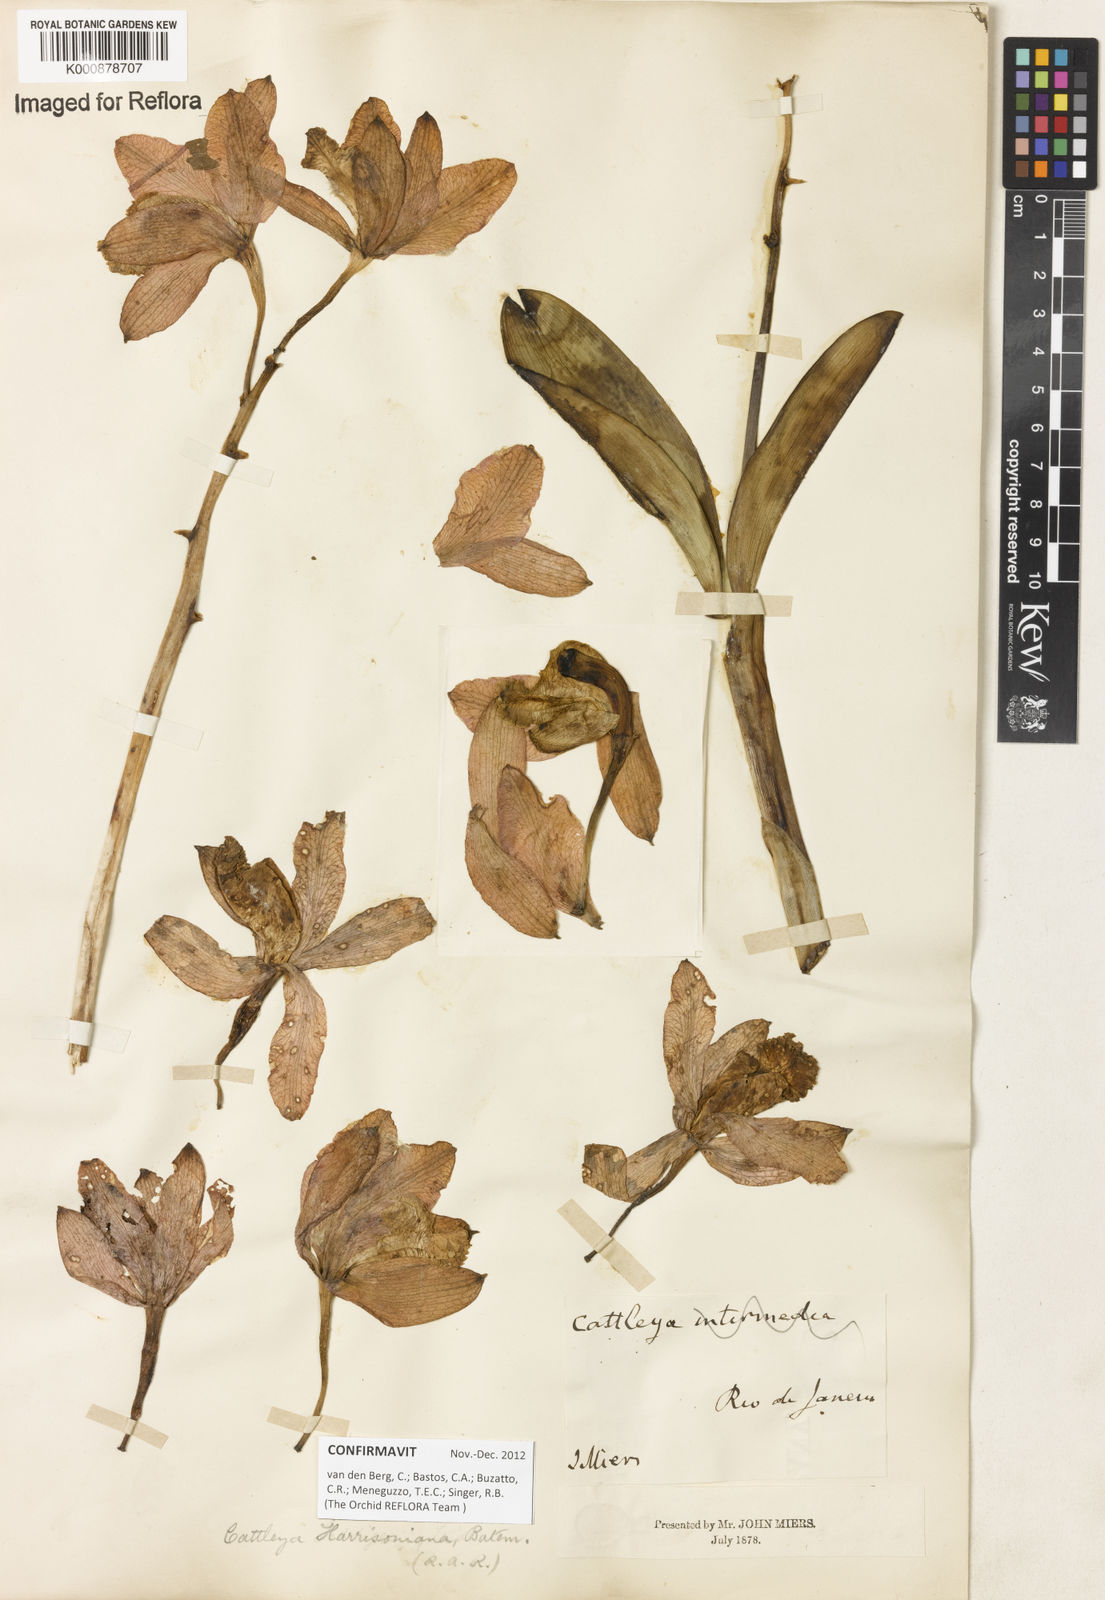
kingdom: Plantae
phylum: Tracheophyta
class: Liliopsida
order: Asparagales
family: Orchidaceae
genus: Cattleya
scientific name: Cattleya harrisoniana
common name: Harrison's cattleya
